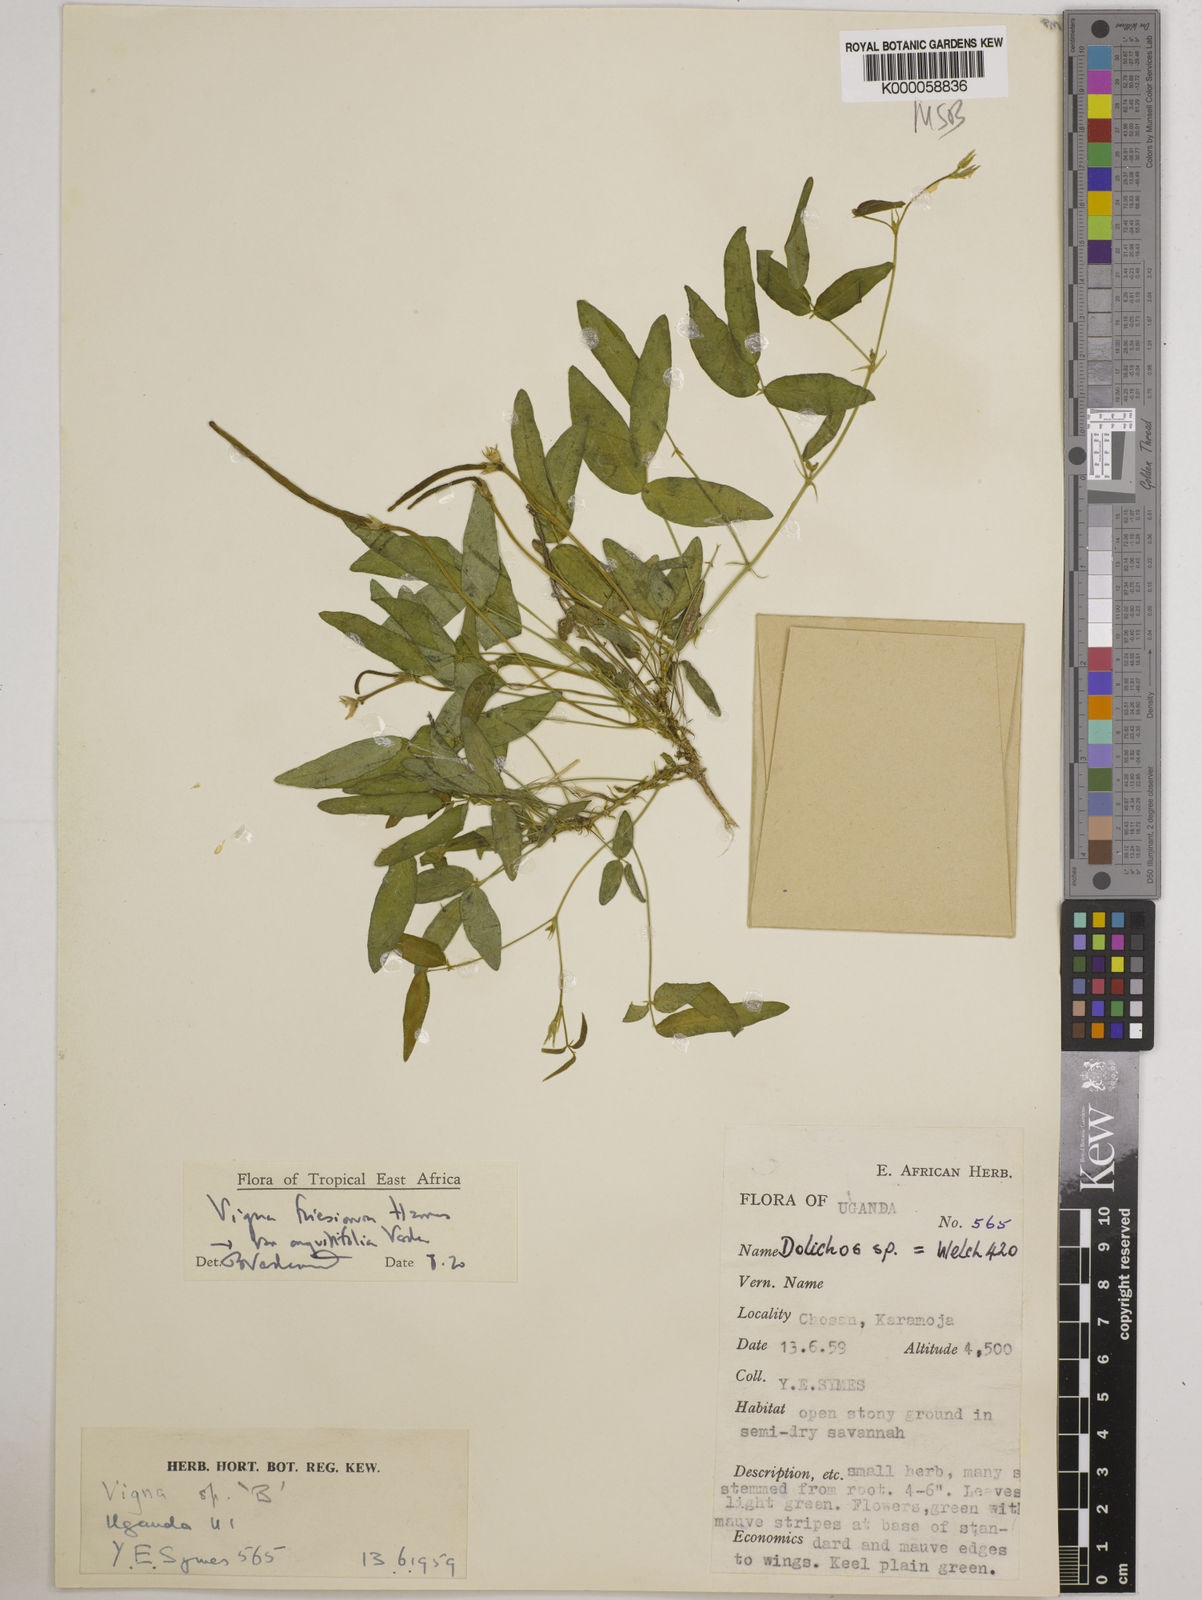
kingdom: Plantae
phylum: Tracheophyta
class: Magnoliopsida
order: Fabales
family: Fabaceae
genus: Vigna
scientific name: Vigna
